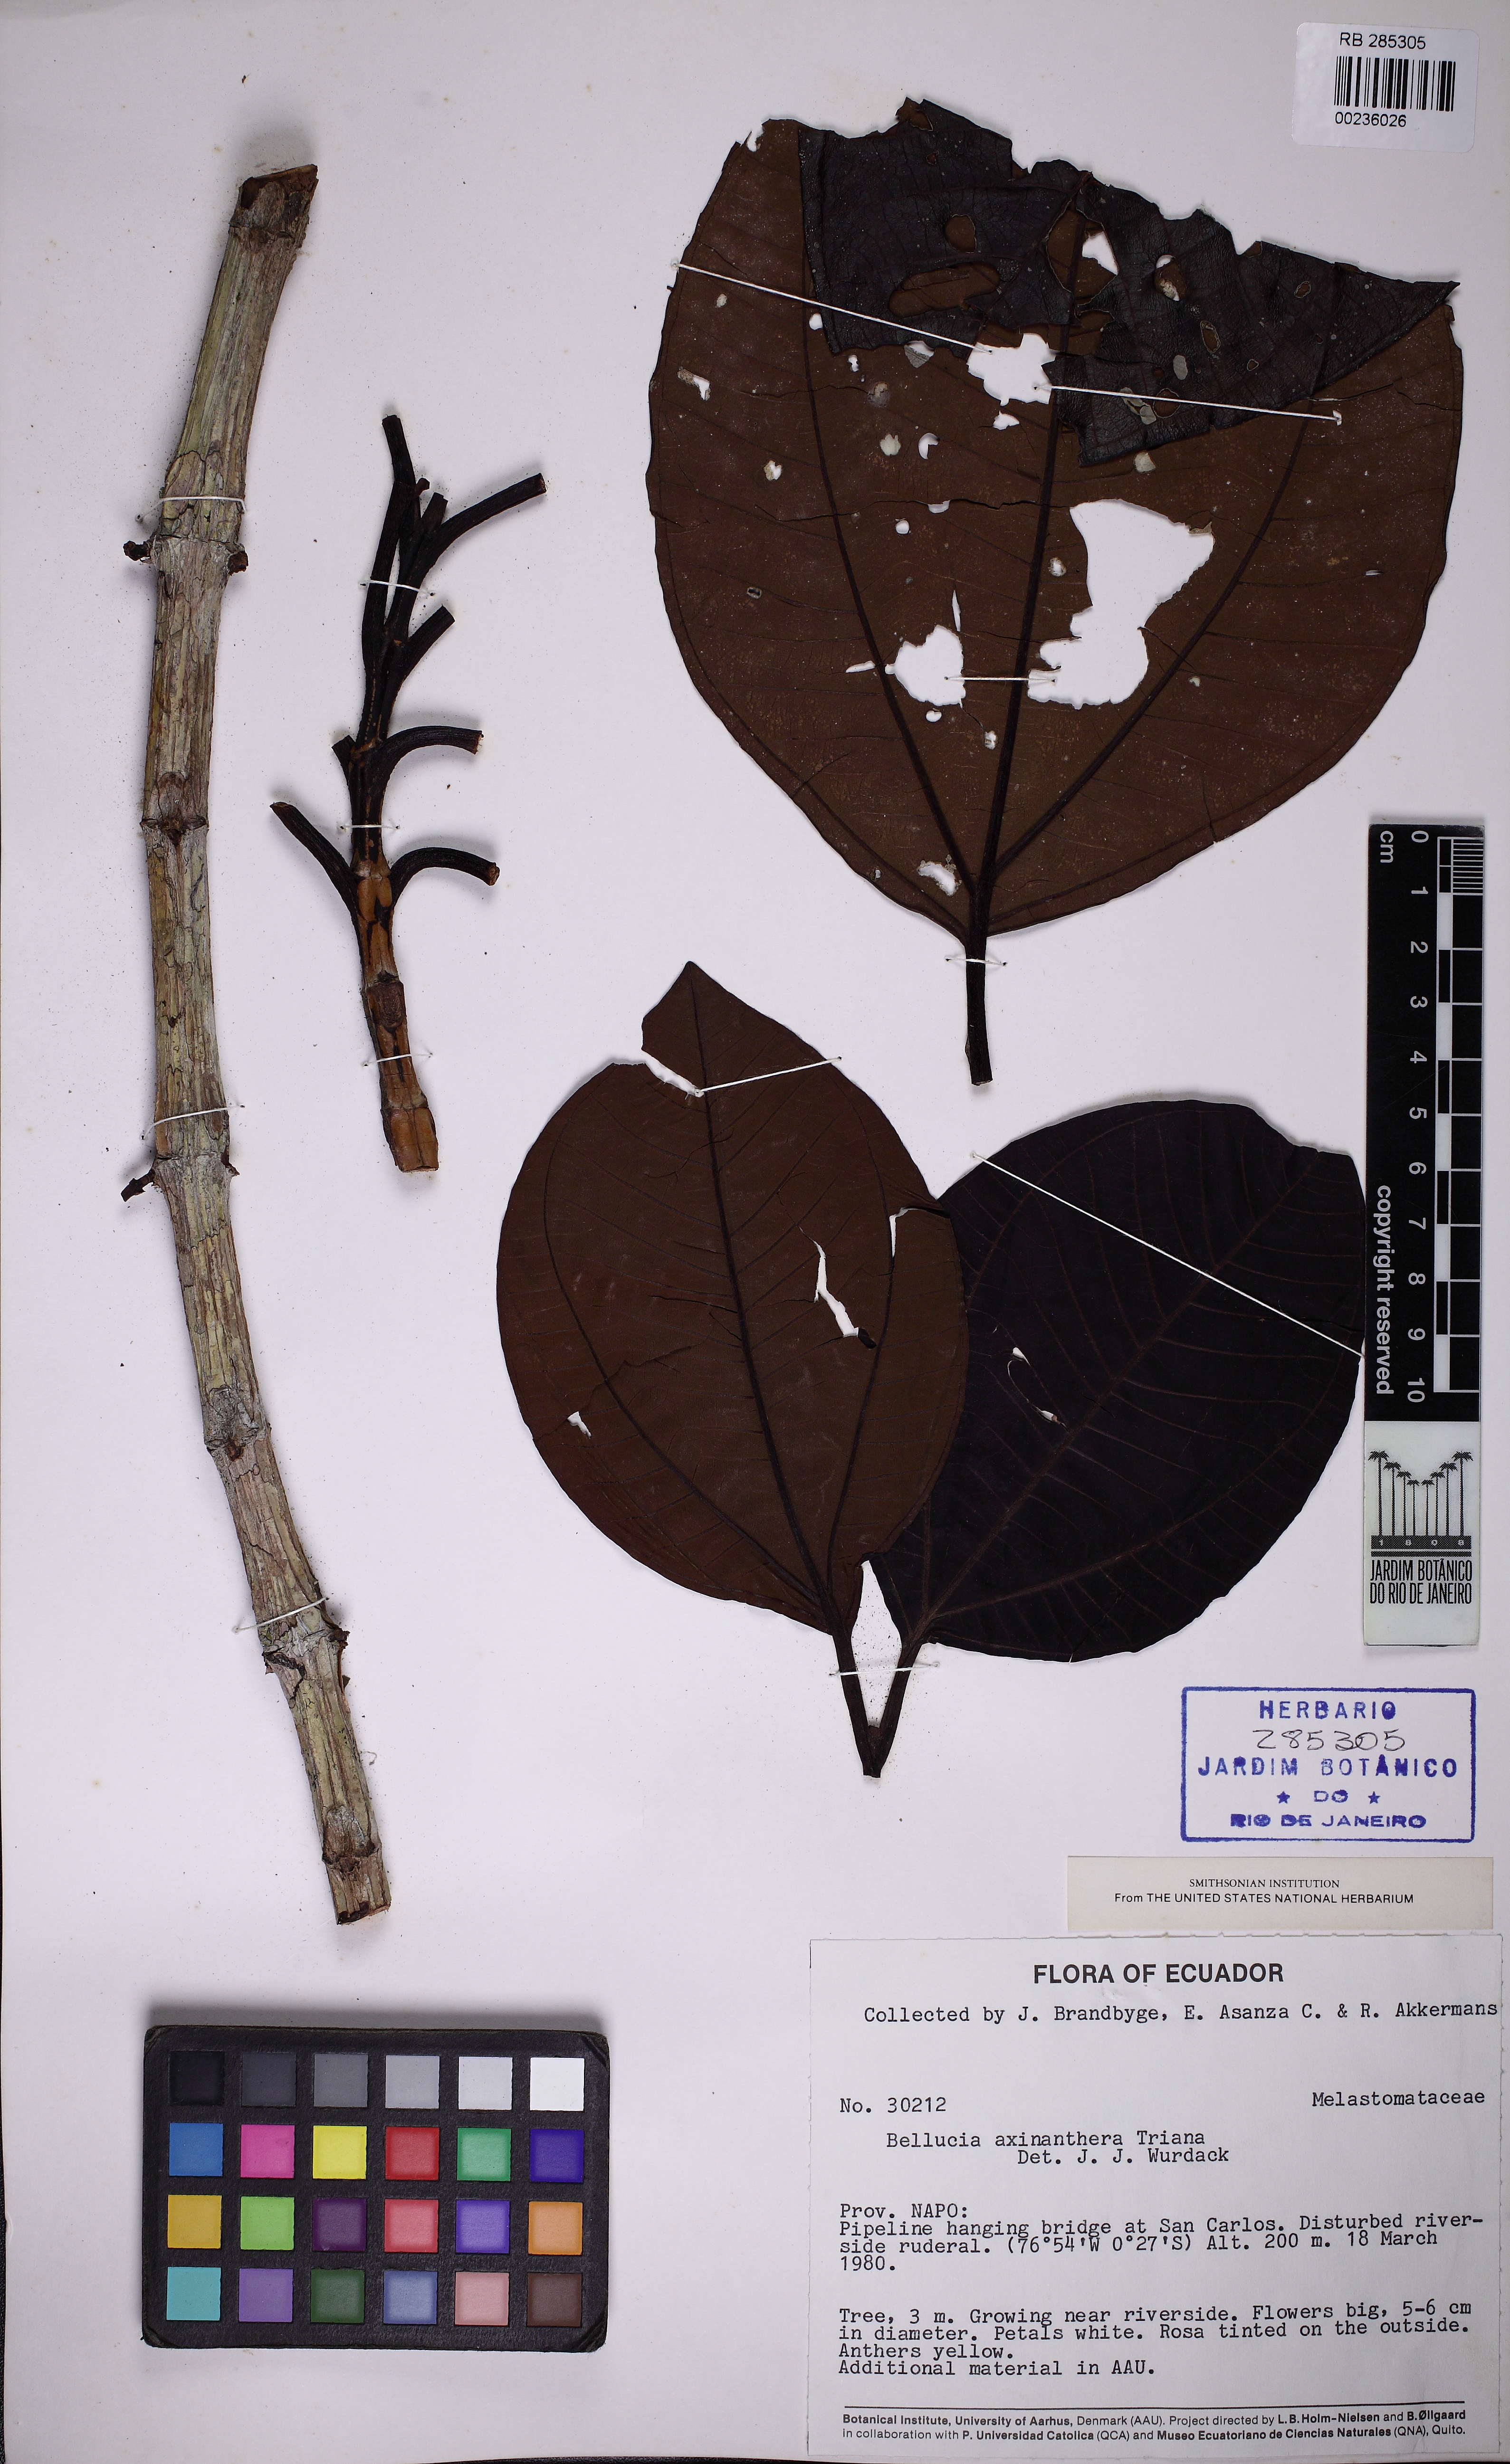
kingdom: Plantae
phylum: Tracheophyta
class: Magnoliopsida
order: Myrtales
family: Melastomataceae
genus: Bellucia
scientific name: Bellucia pentamera
